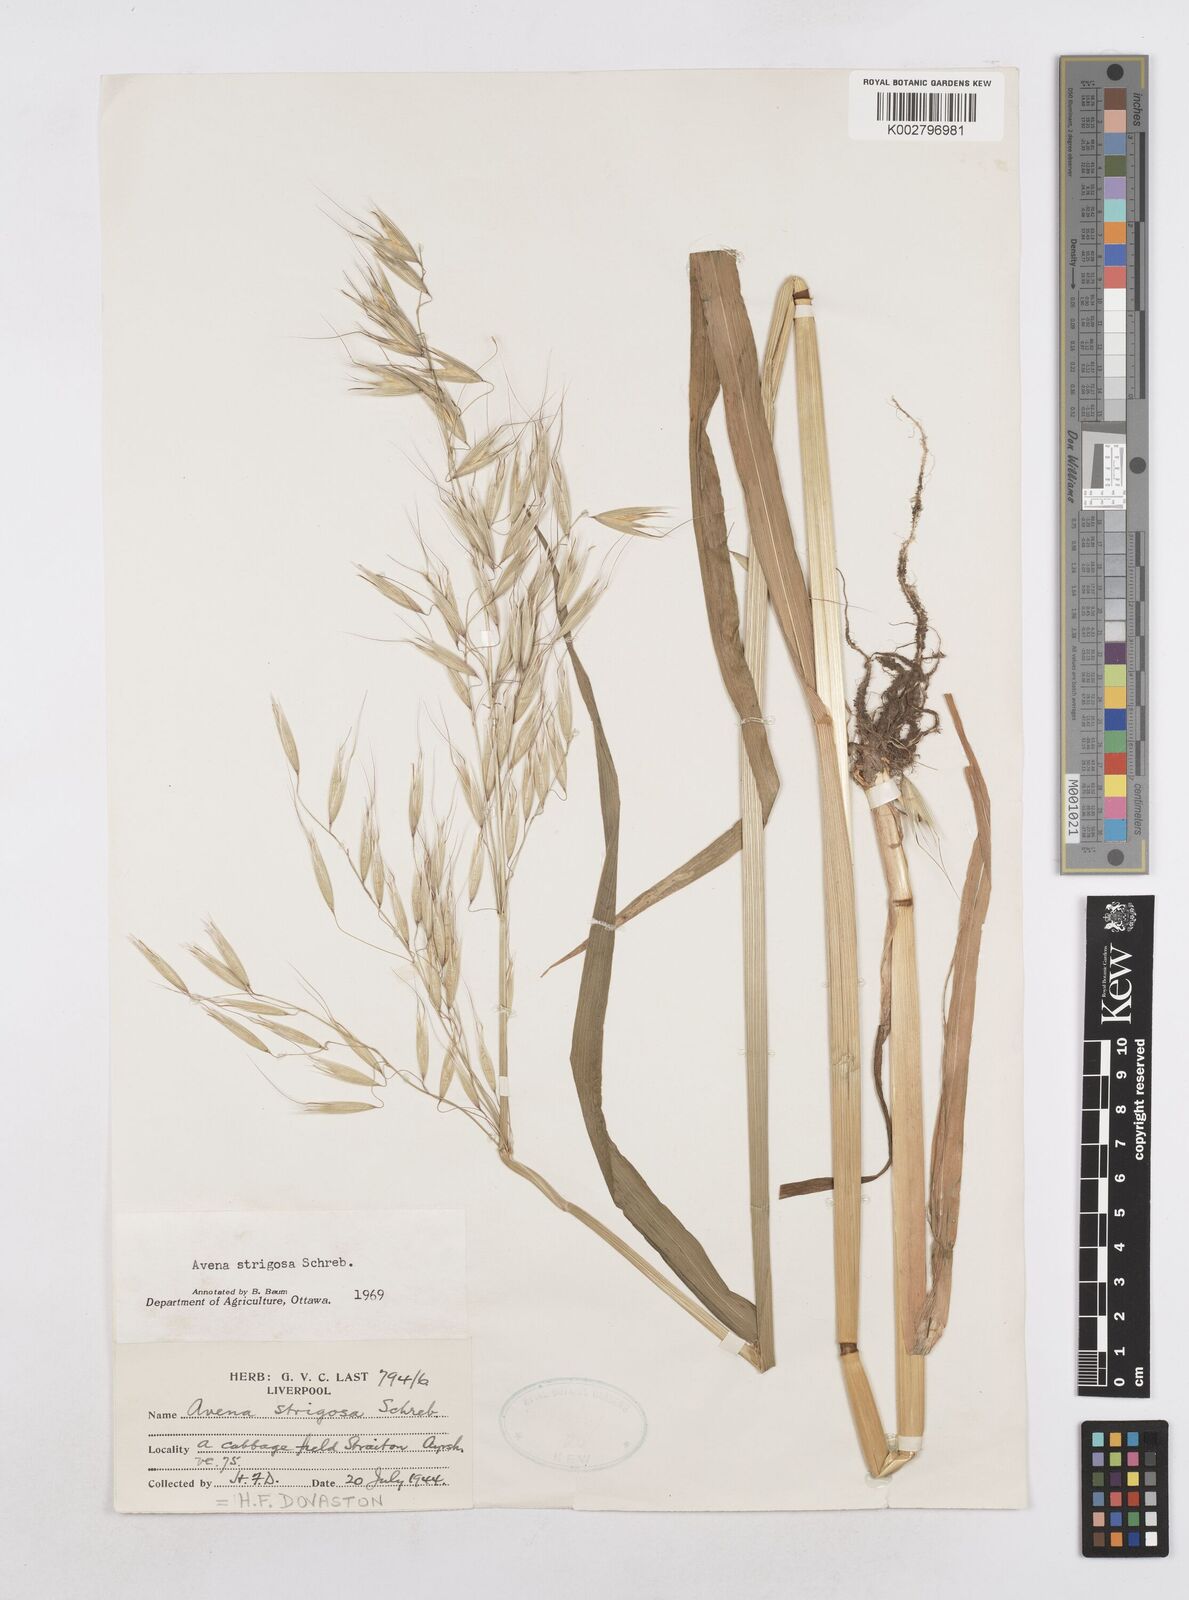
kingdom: Plantae
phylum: Tracheophyta
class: Liliopsida
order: Poales
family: Poaceae
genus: Avena
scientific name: Avena strigosa
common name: Bristle oat
